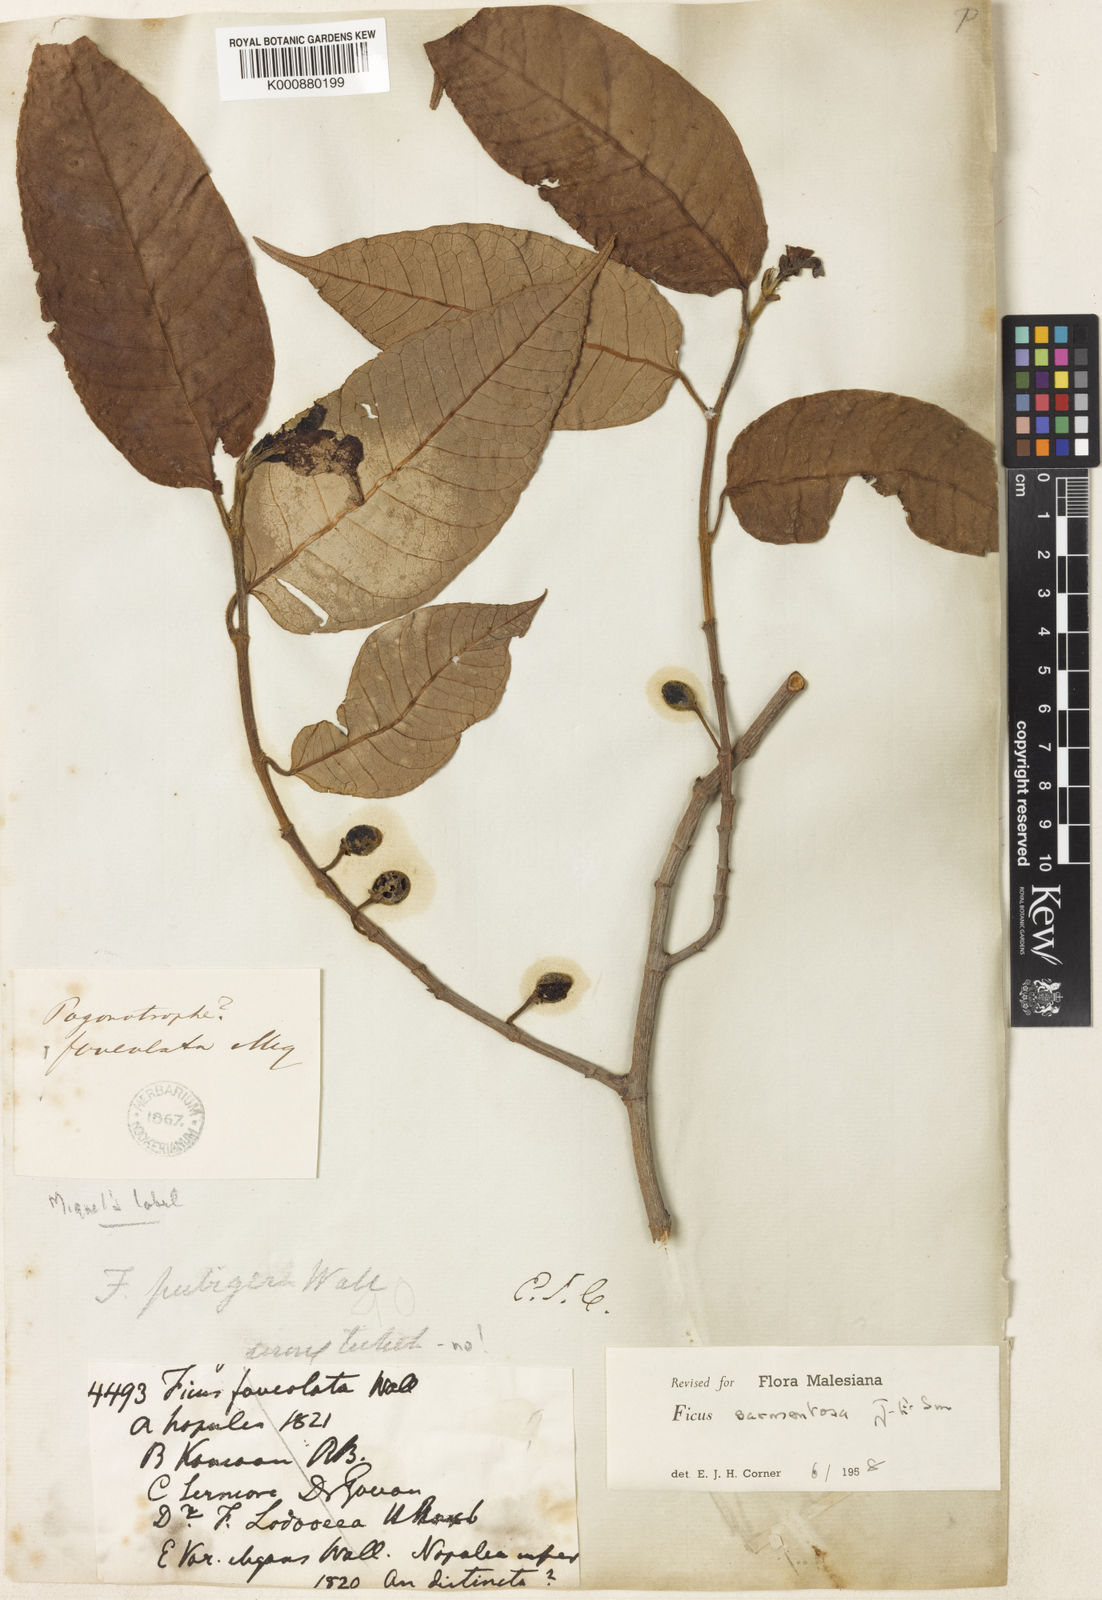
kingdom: Plantae
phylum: Tracheophyta
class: Magnoliopsida
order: Rosales
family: Moraceae
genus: Ficus
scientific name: Ficus sarmentosa
